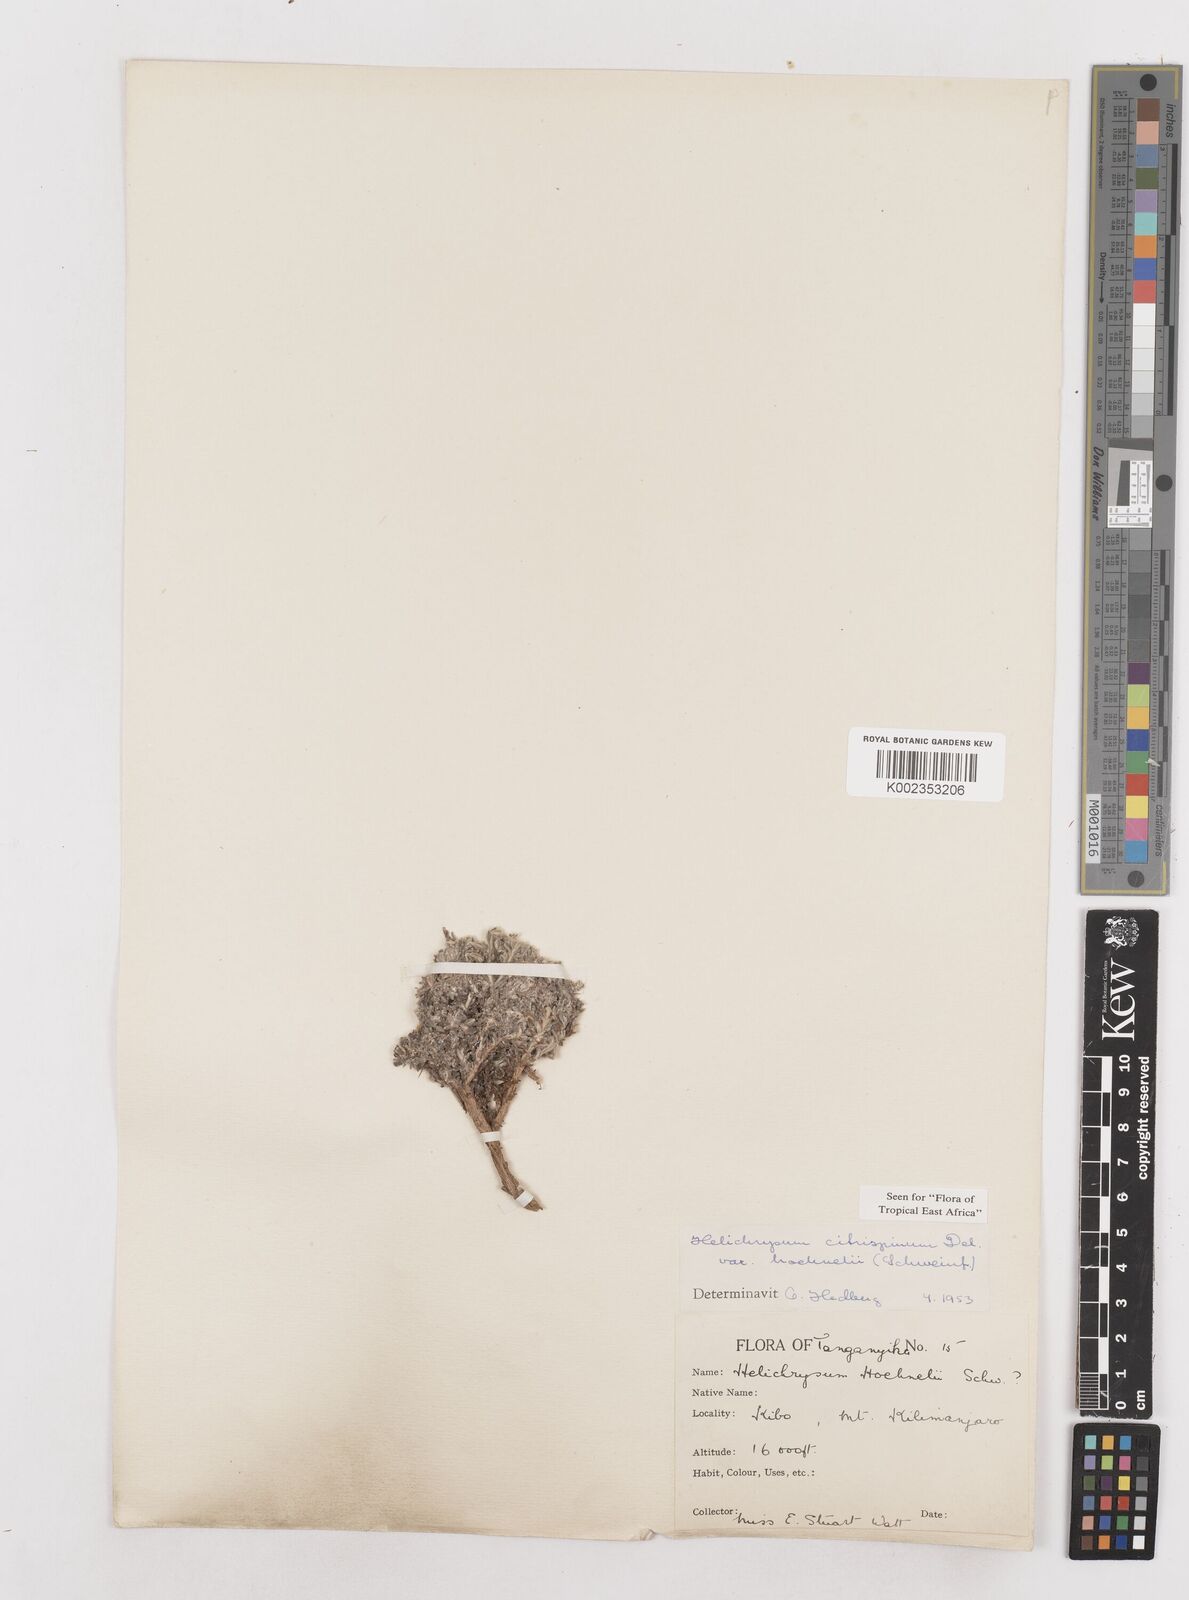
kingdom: Plantae
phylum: Tracheophyta
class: Magnoliopsida
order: Asterales
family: Asteraceae
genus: Helichrysum
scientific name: Helichrysum citrispinum
